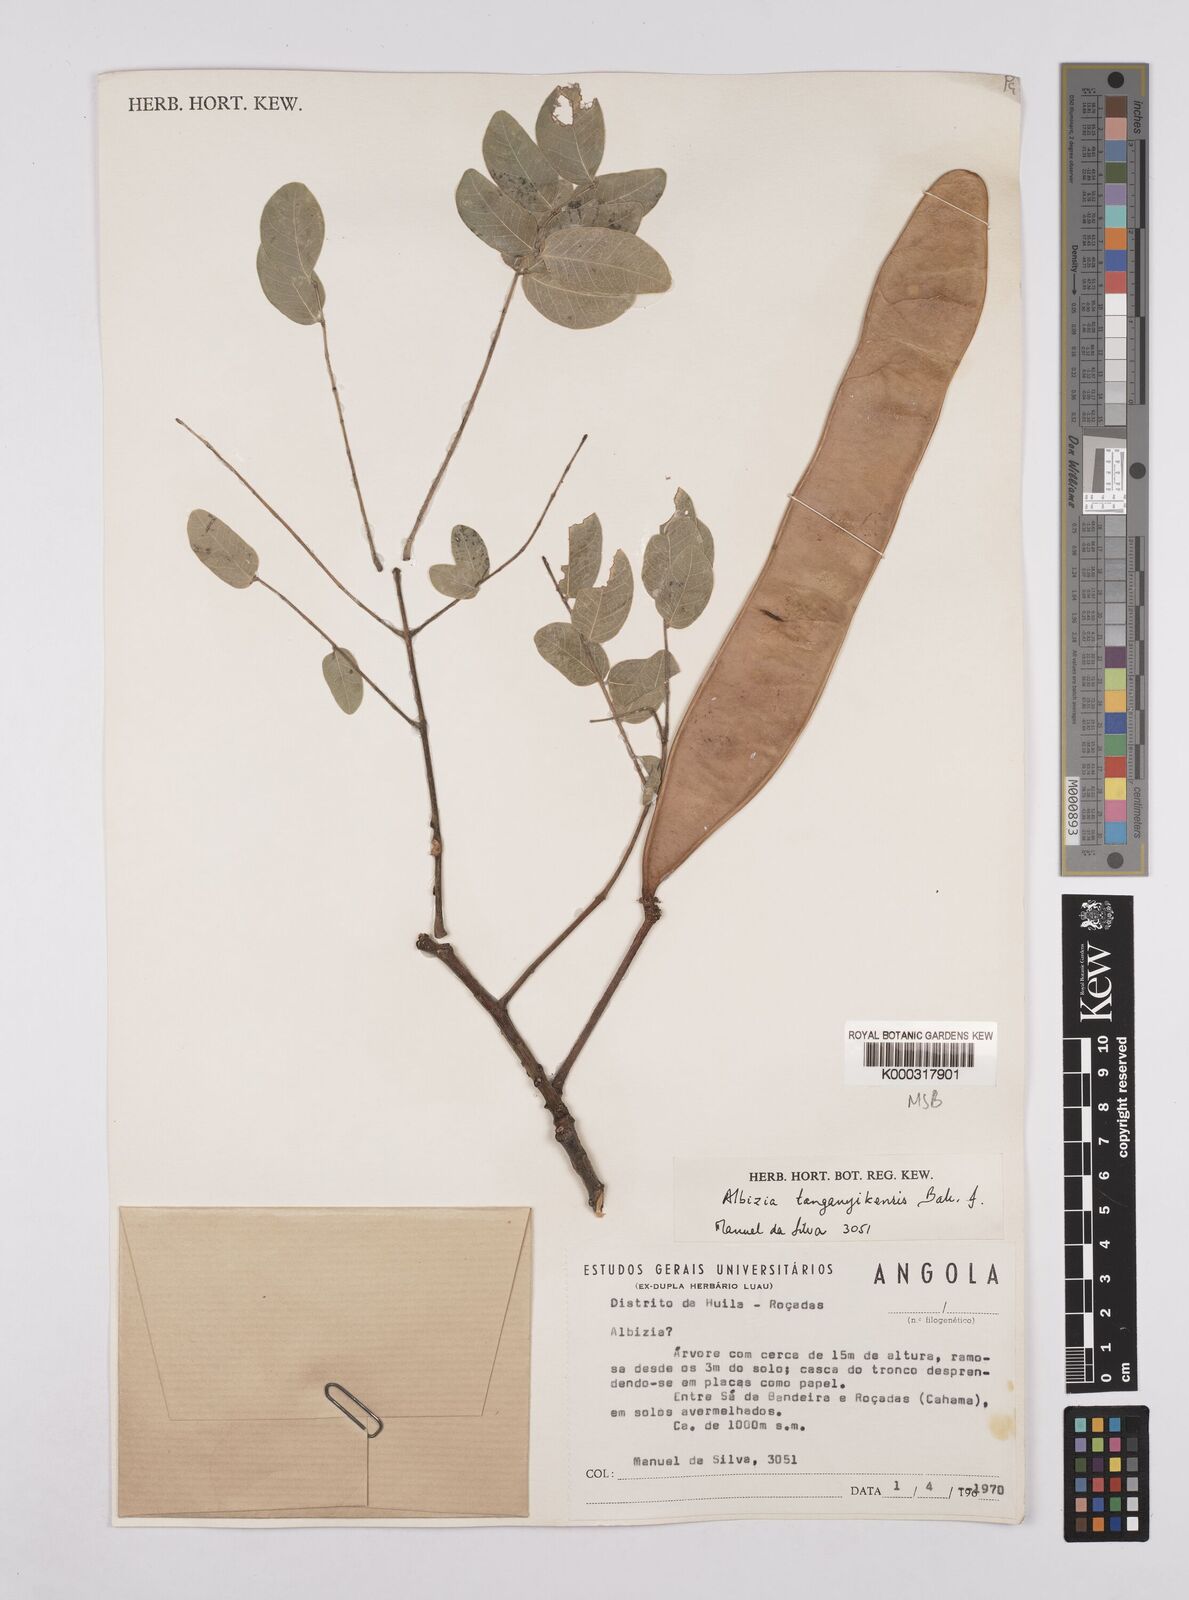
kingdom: Plantae
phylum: Tracheophyta
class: Magnoliopsida
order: Fabales
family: Fabaceae
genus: Albizia
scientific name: Albizia tanganyicensis
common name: Paperbark false thorn
